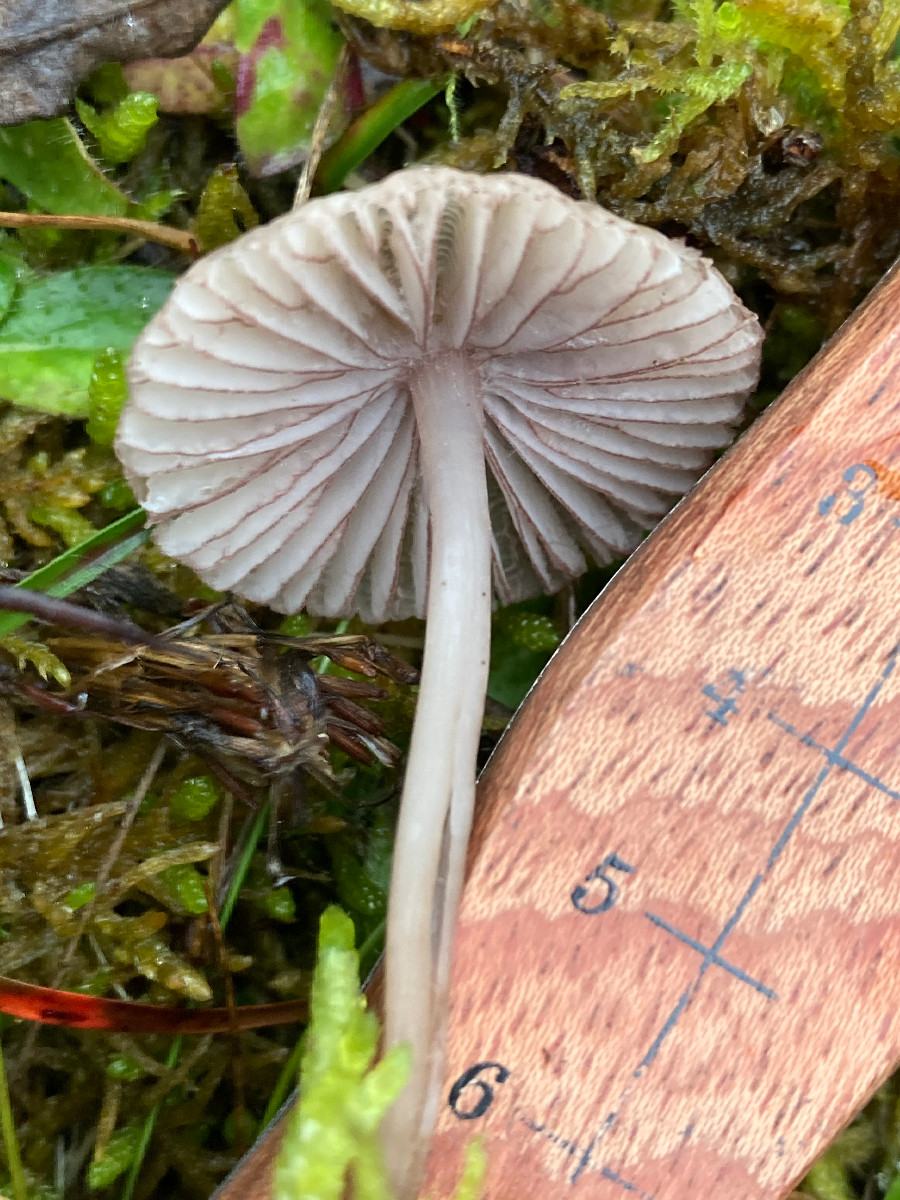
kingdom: Fungi
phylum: Basidiomycota
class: Agaricomycetes
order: Agaricales
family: Mycenaceae
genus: Mycena
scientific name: Mycena
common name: huesvamp
